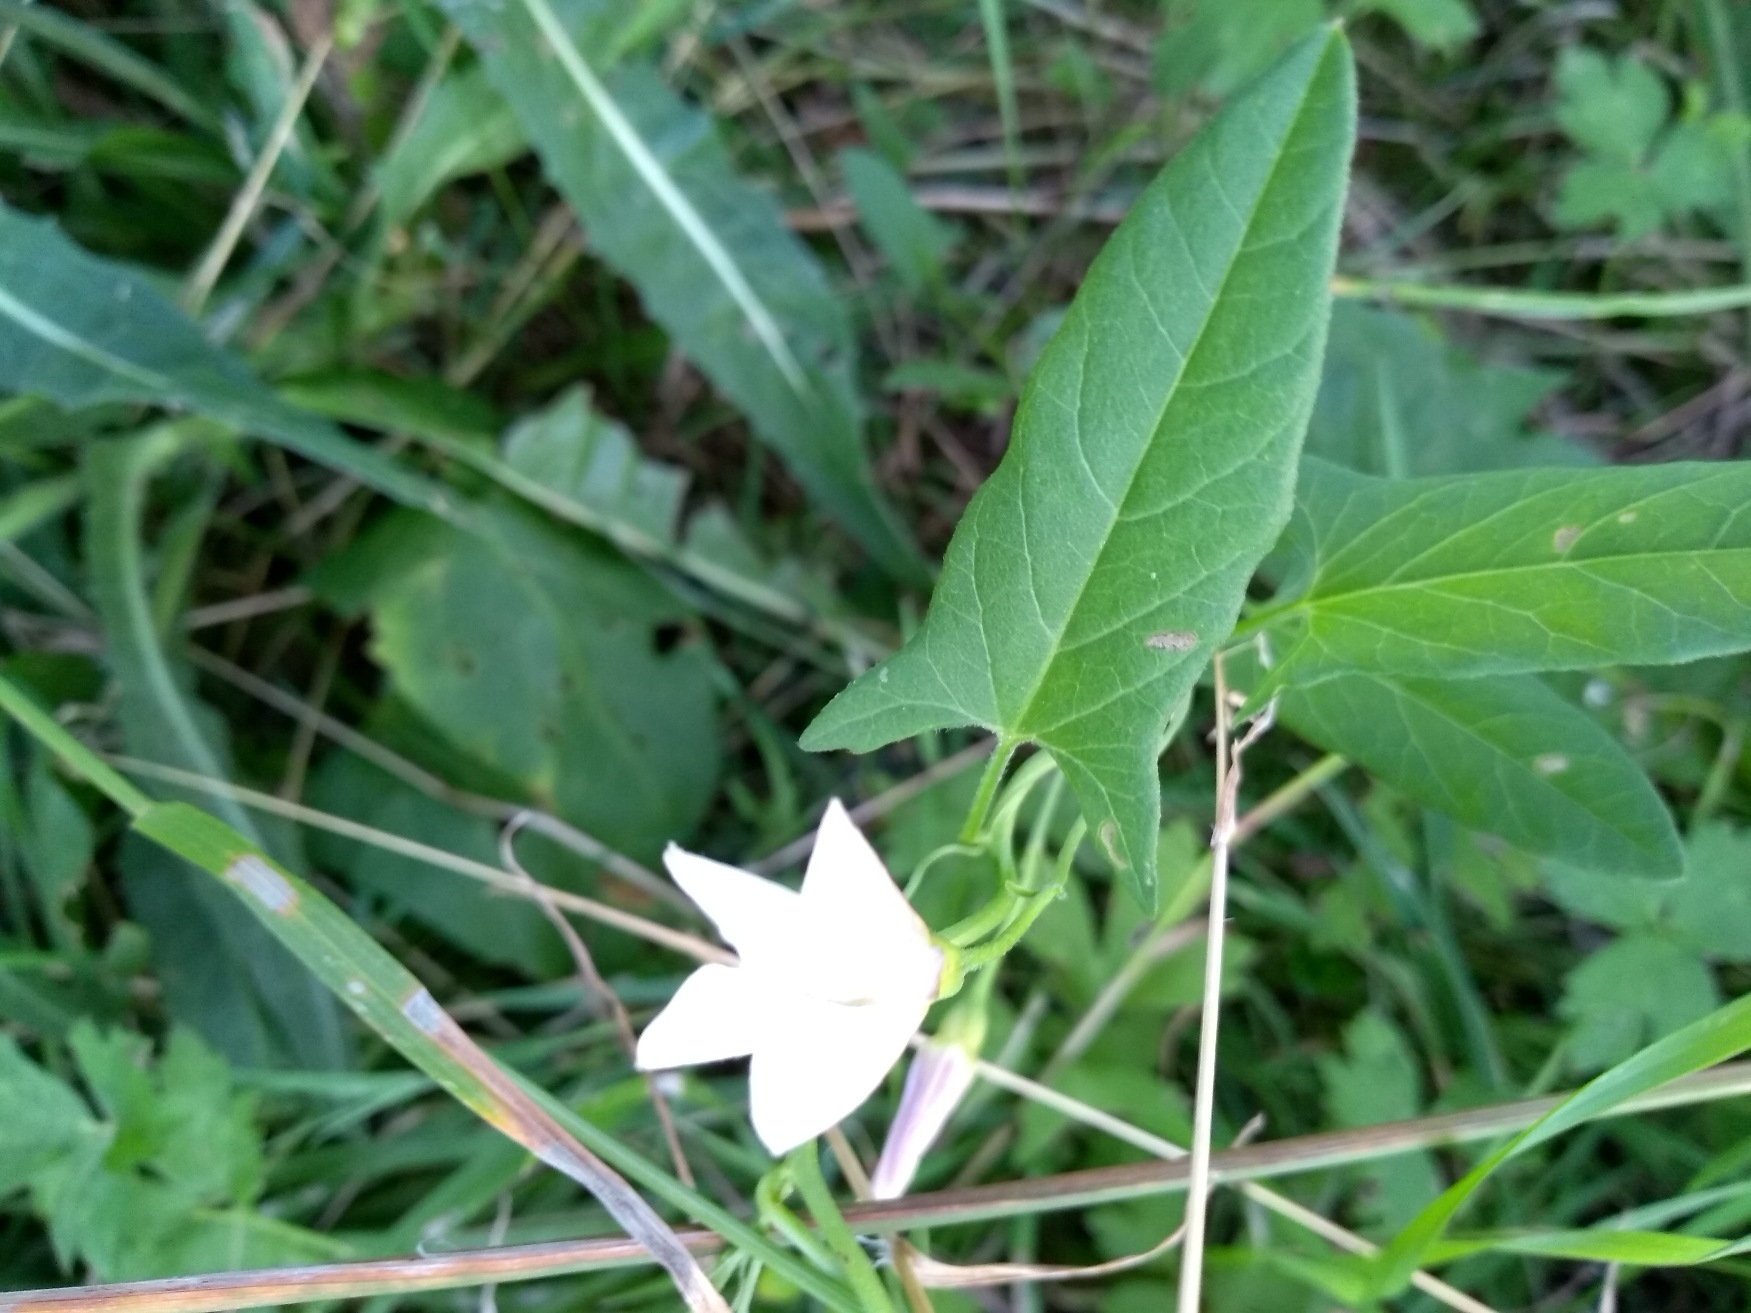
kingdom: Plantae
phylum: Tracheophyta
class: Magnoliopsida
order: Solanales
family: Convolvulaceae
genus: Convolvulus
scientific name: Convolvulus arvensis
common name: Ager-snerle
